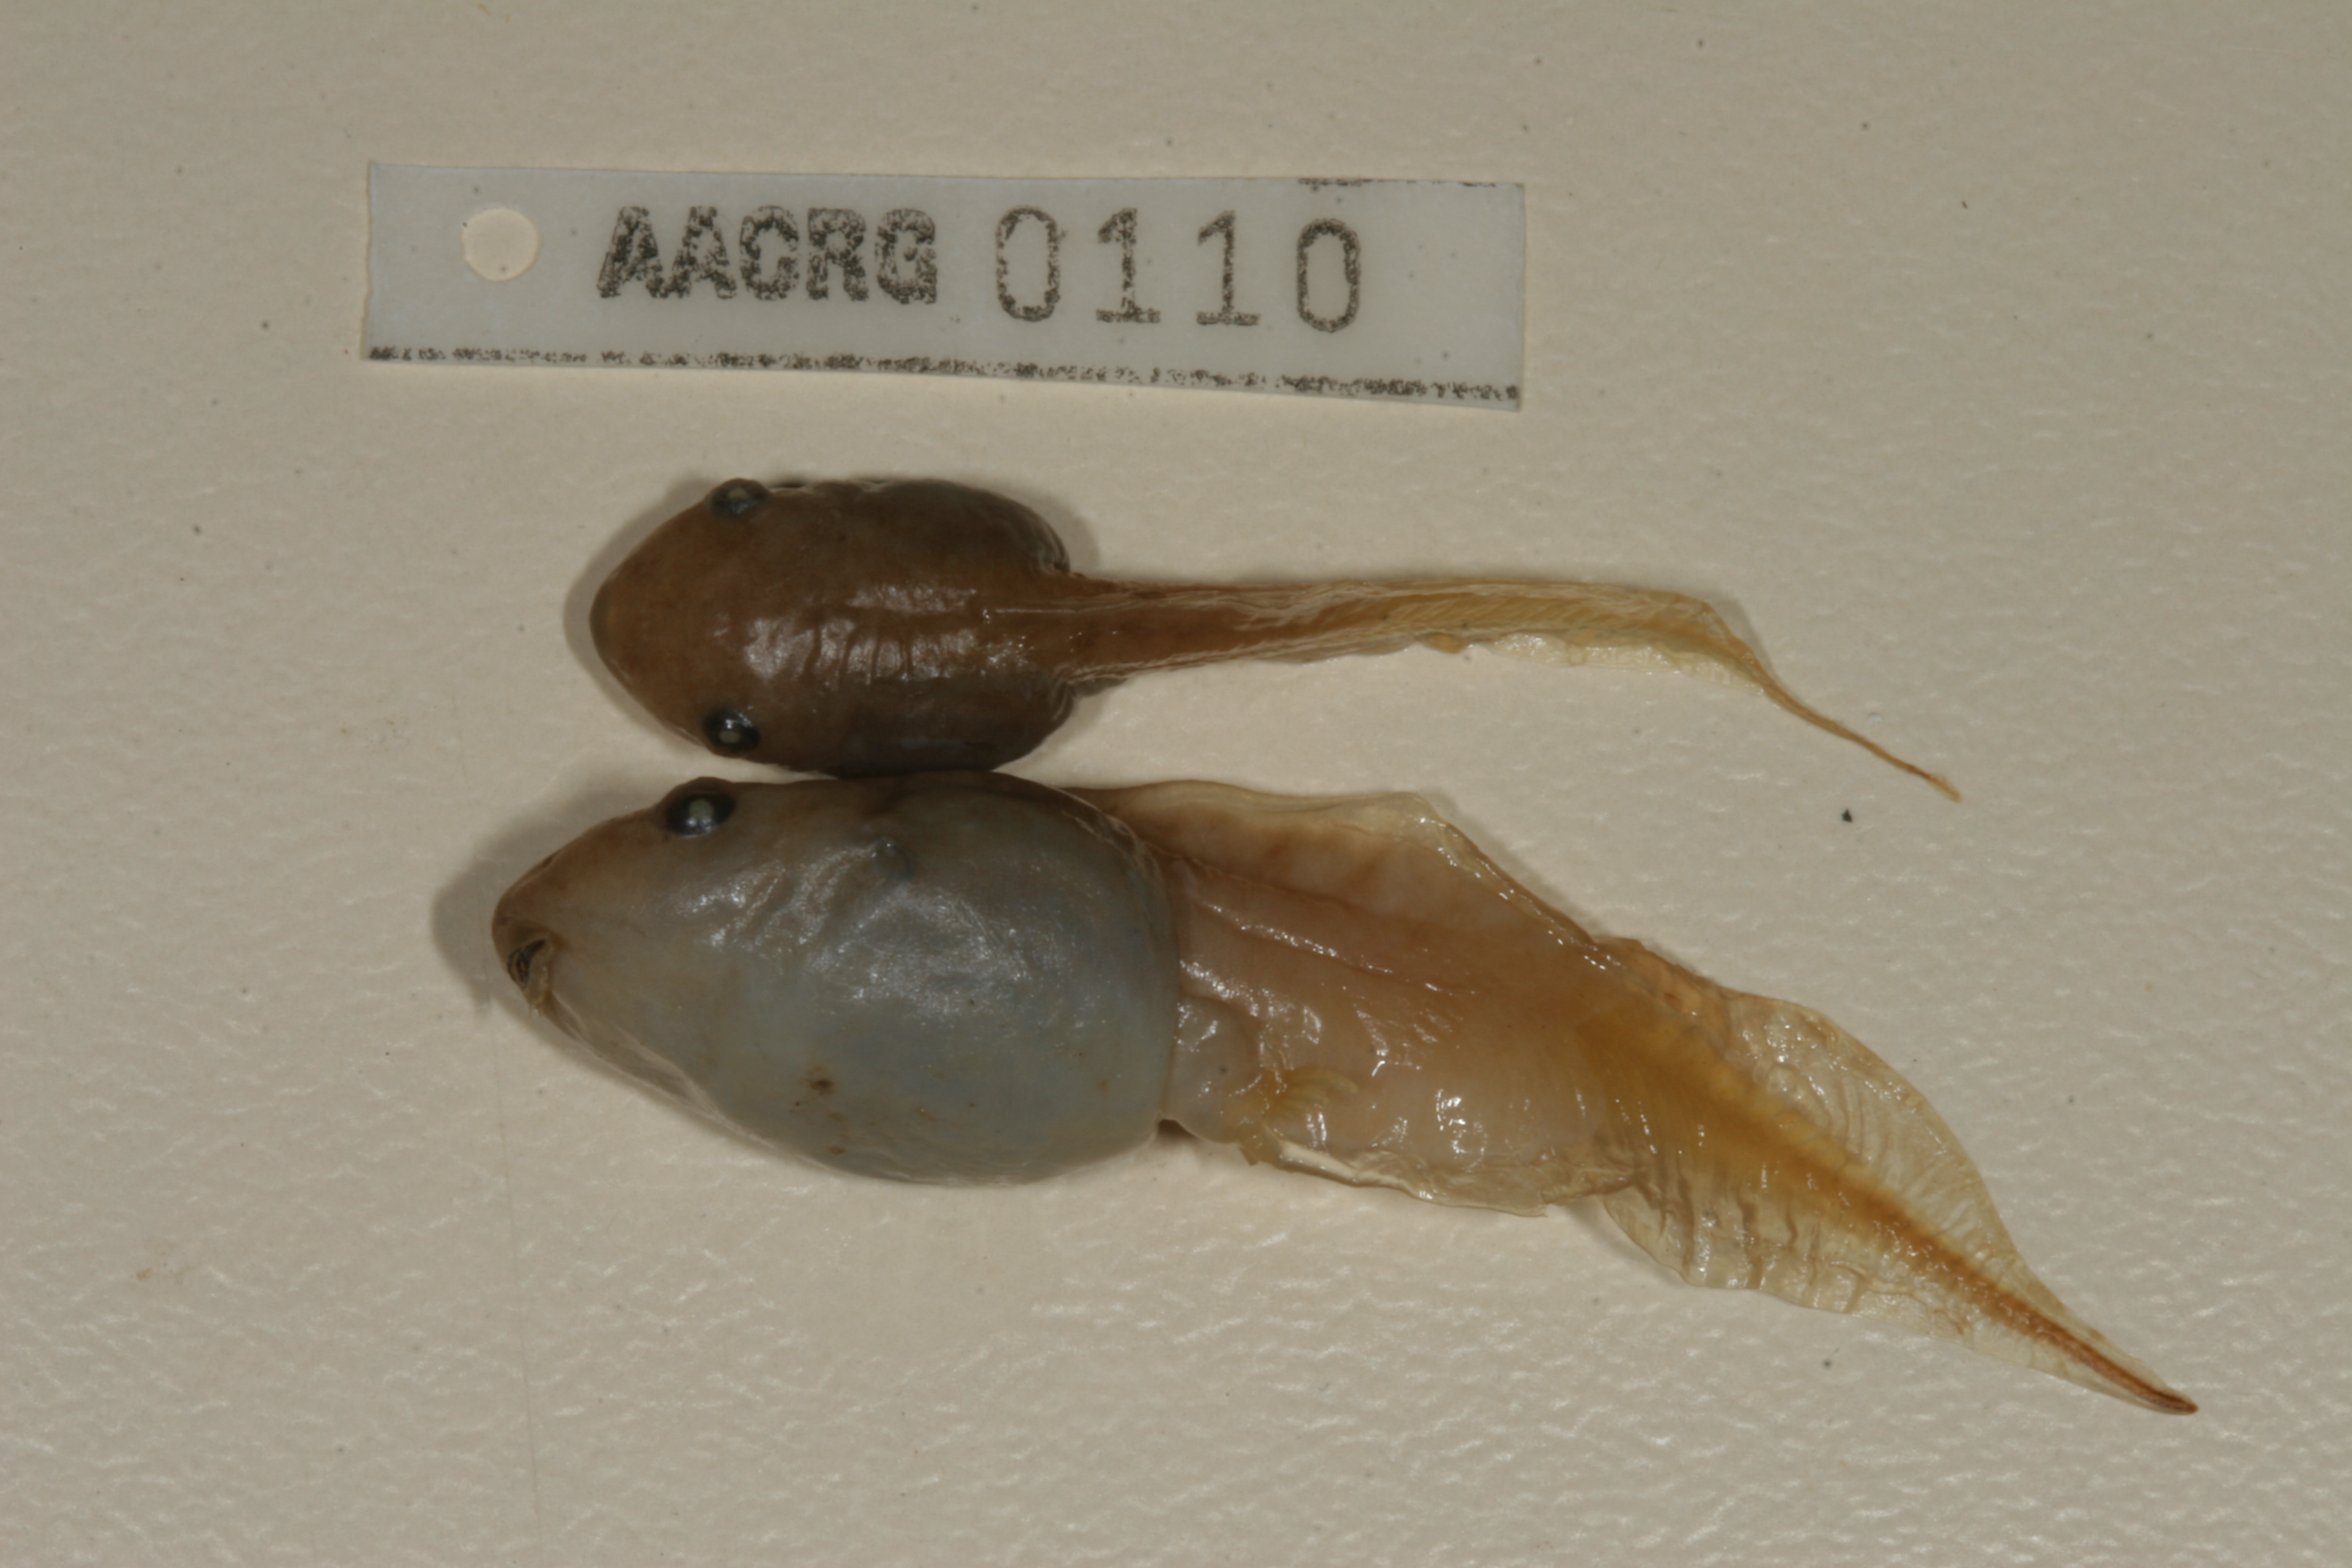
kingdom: Animalia
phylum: Chordata
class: Amphibia
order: Anura
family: Hemisotidae
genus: Hemisus
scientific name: Hemisus marmoratus
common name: Mottled shovel-nosed frog
